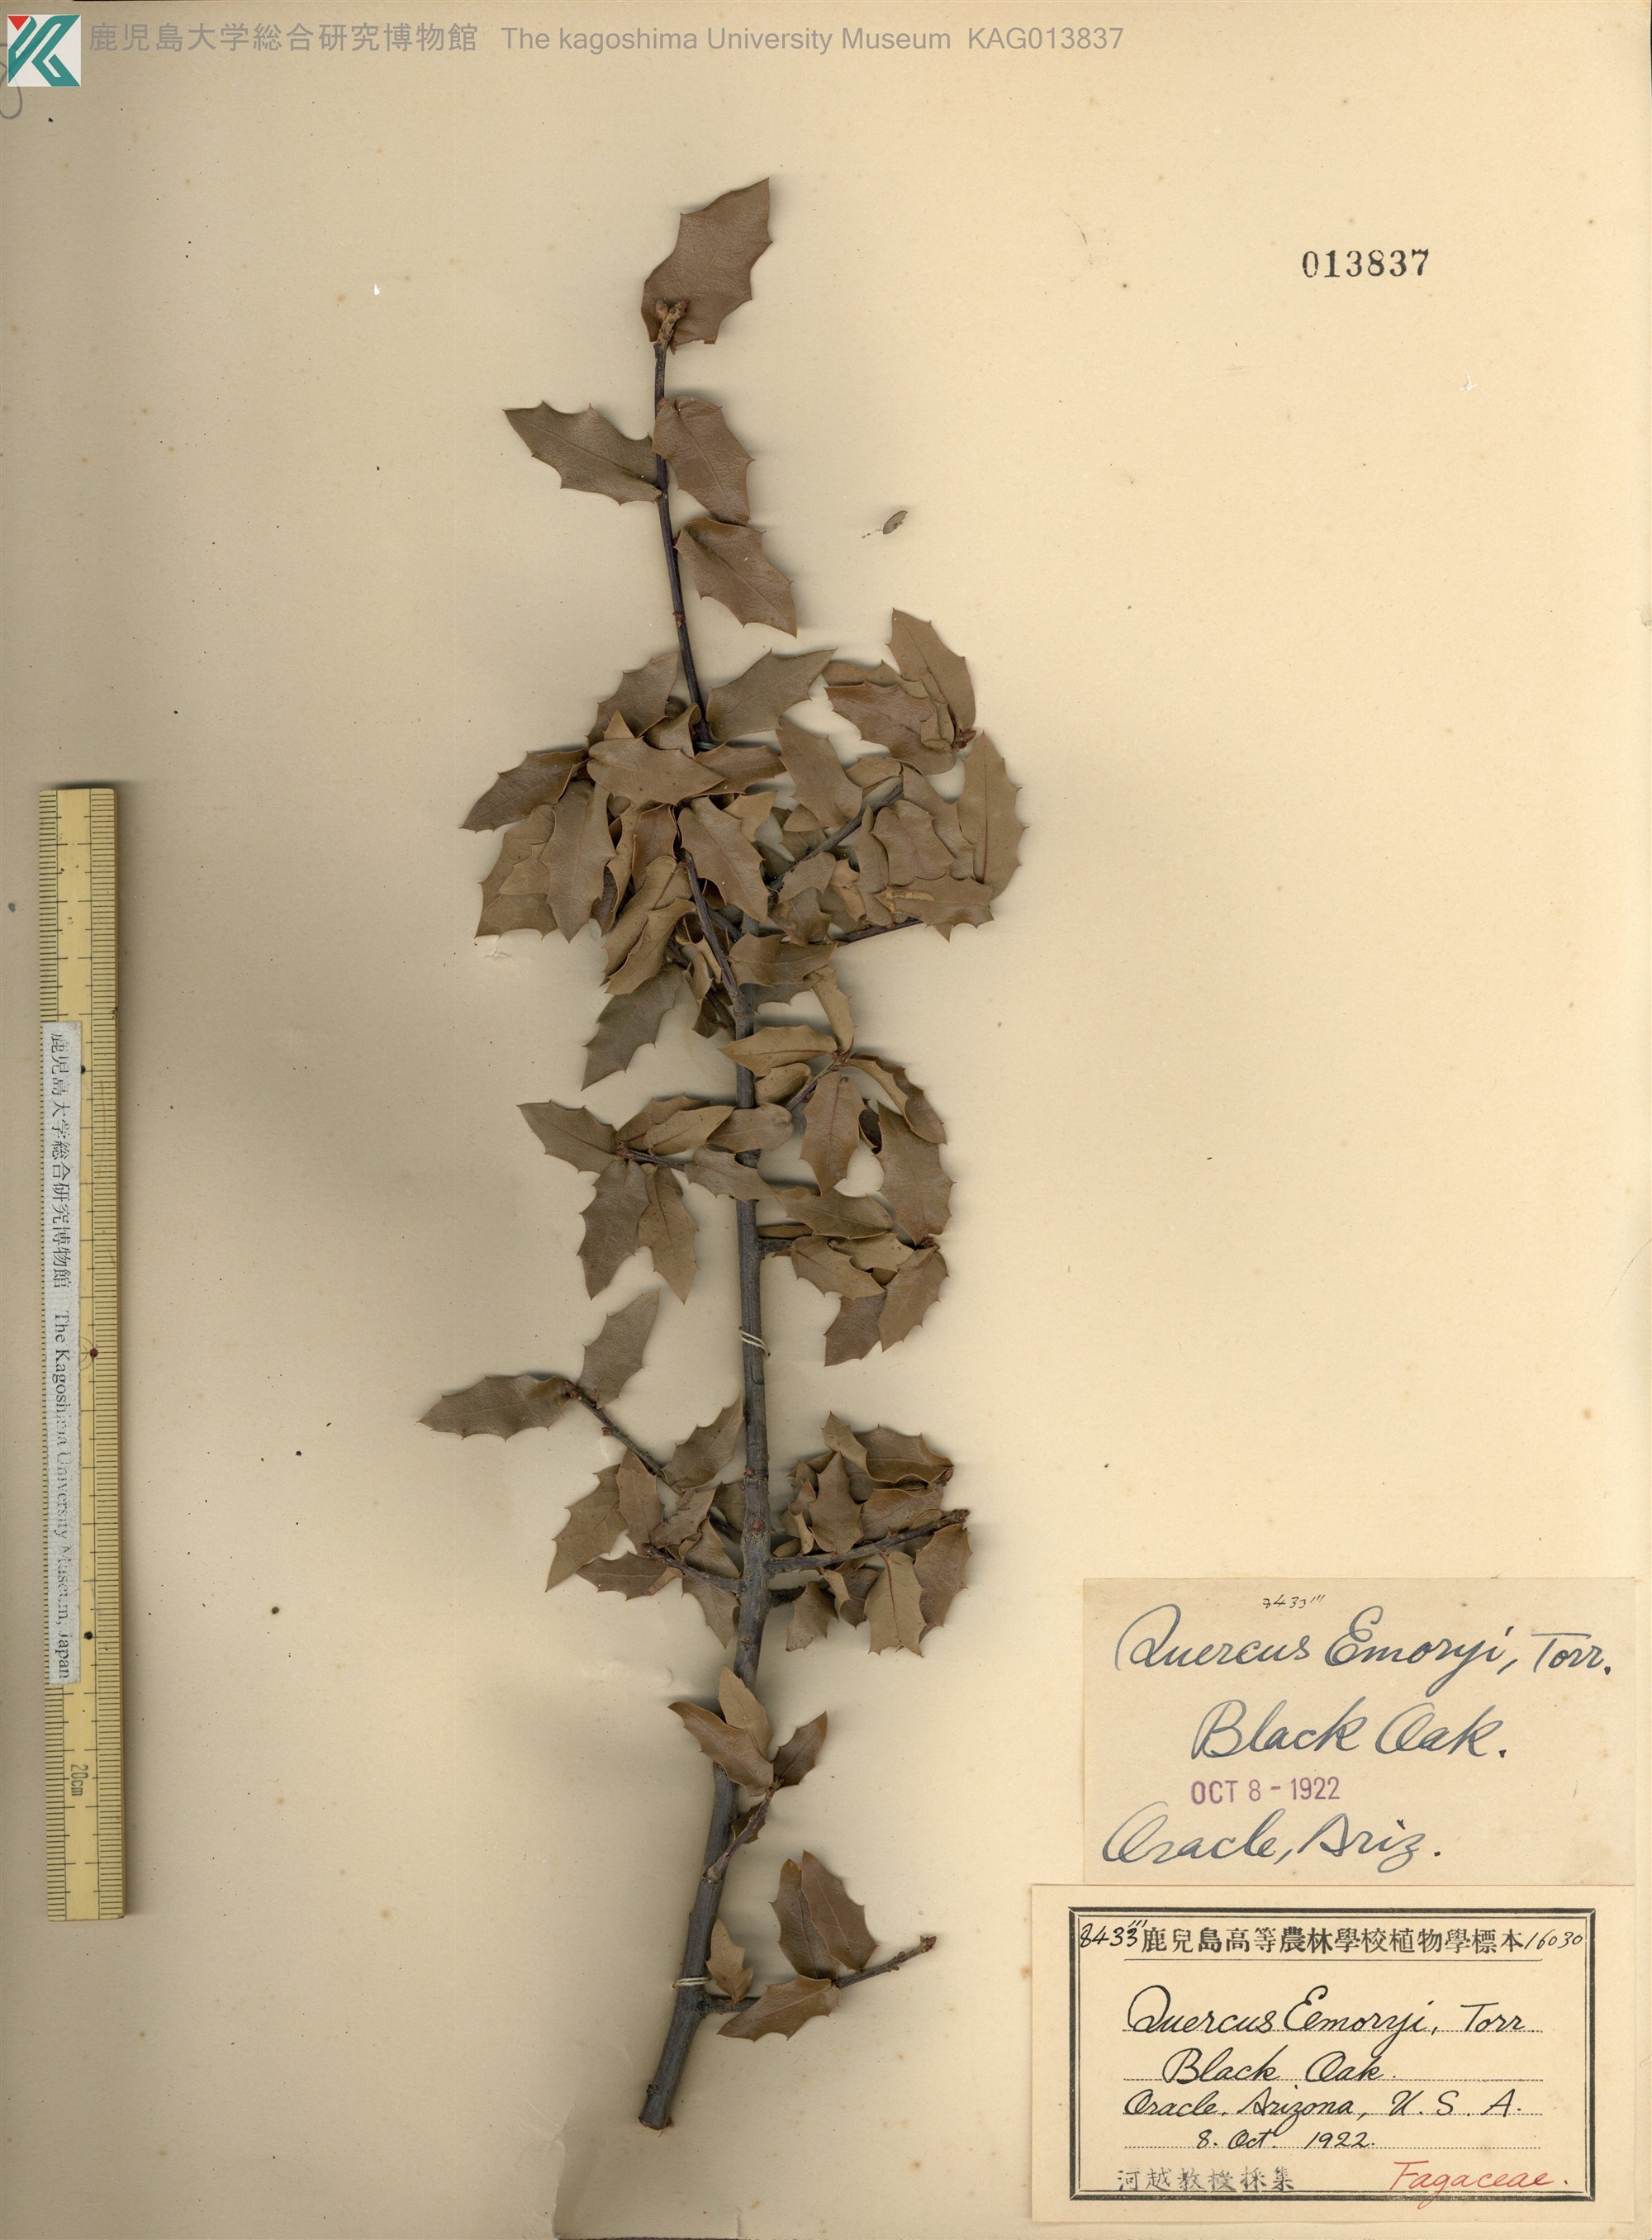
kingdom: Plantae
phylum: Tracheophyta
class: Magnoliopsida
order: Fagales
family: Fagaceae
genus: Quercus
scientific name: Quercus emoryi
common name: Emory oak
